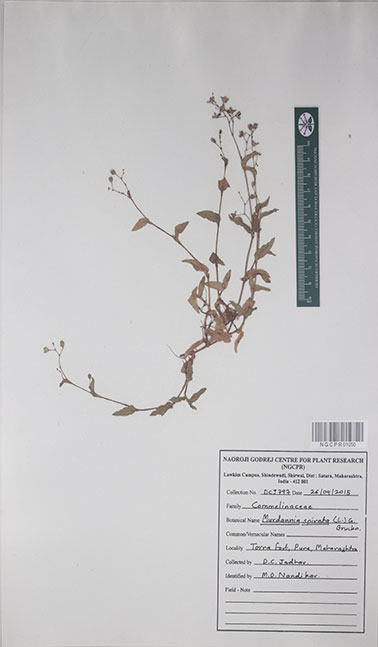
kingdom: Plantae
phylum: Tracheophyta
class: Liliopsida
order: Commelinales
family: Commelinaceae
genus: Murdannia
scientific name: Murdannia spirata
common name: Asiatic dewflower
